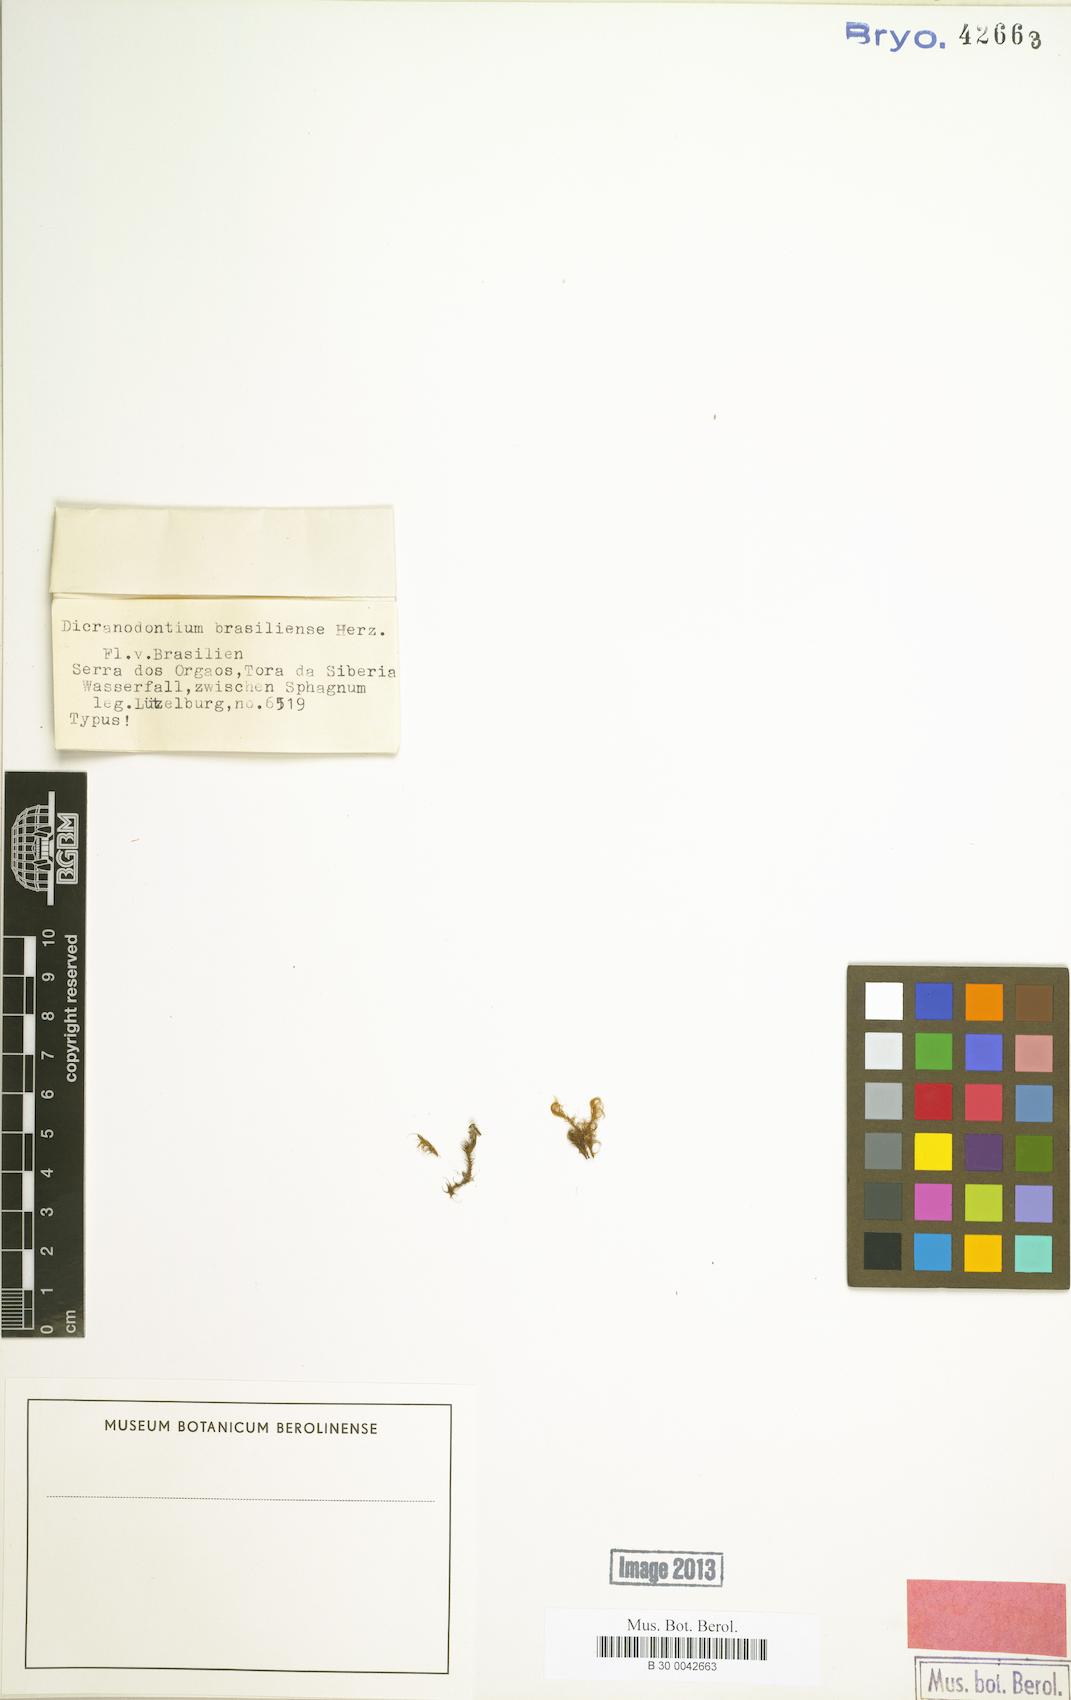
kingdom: Plantae
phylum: Bryophyta
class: Bryopsida
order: Dicranales
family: Leucobryaceae
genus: Dicranodontium
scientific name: Dicranodontium pulchroalare
